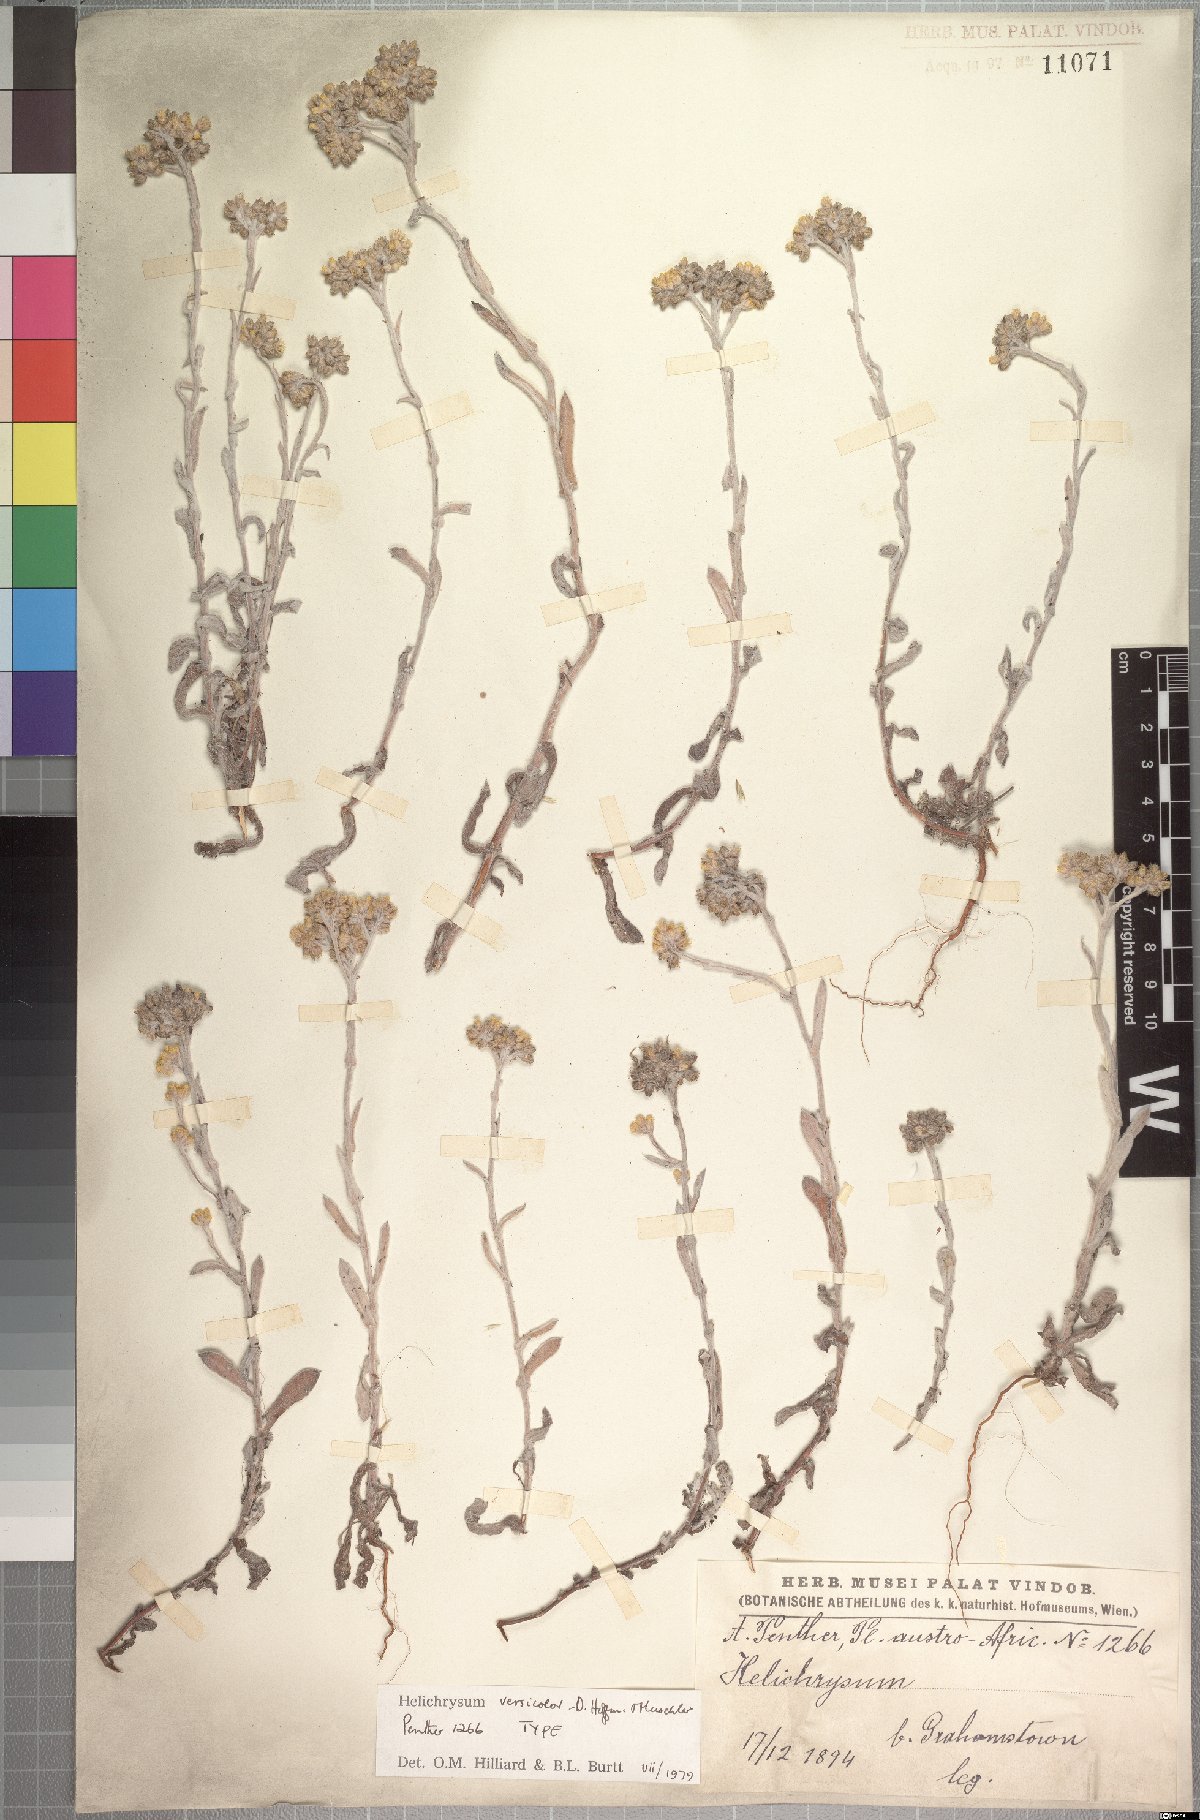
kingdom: Plantae
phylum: Tracheophyta
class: Magnoliopsida
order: Asterales
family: Asteraceae
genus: Helichrysum
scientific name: Helichrysum versicolor
